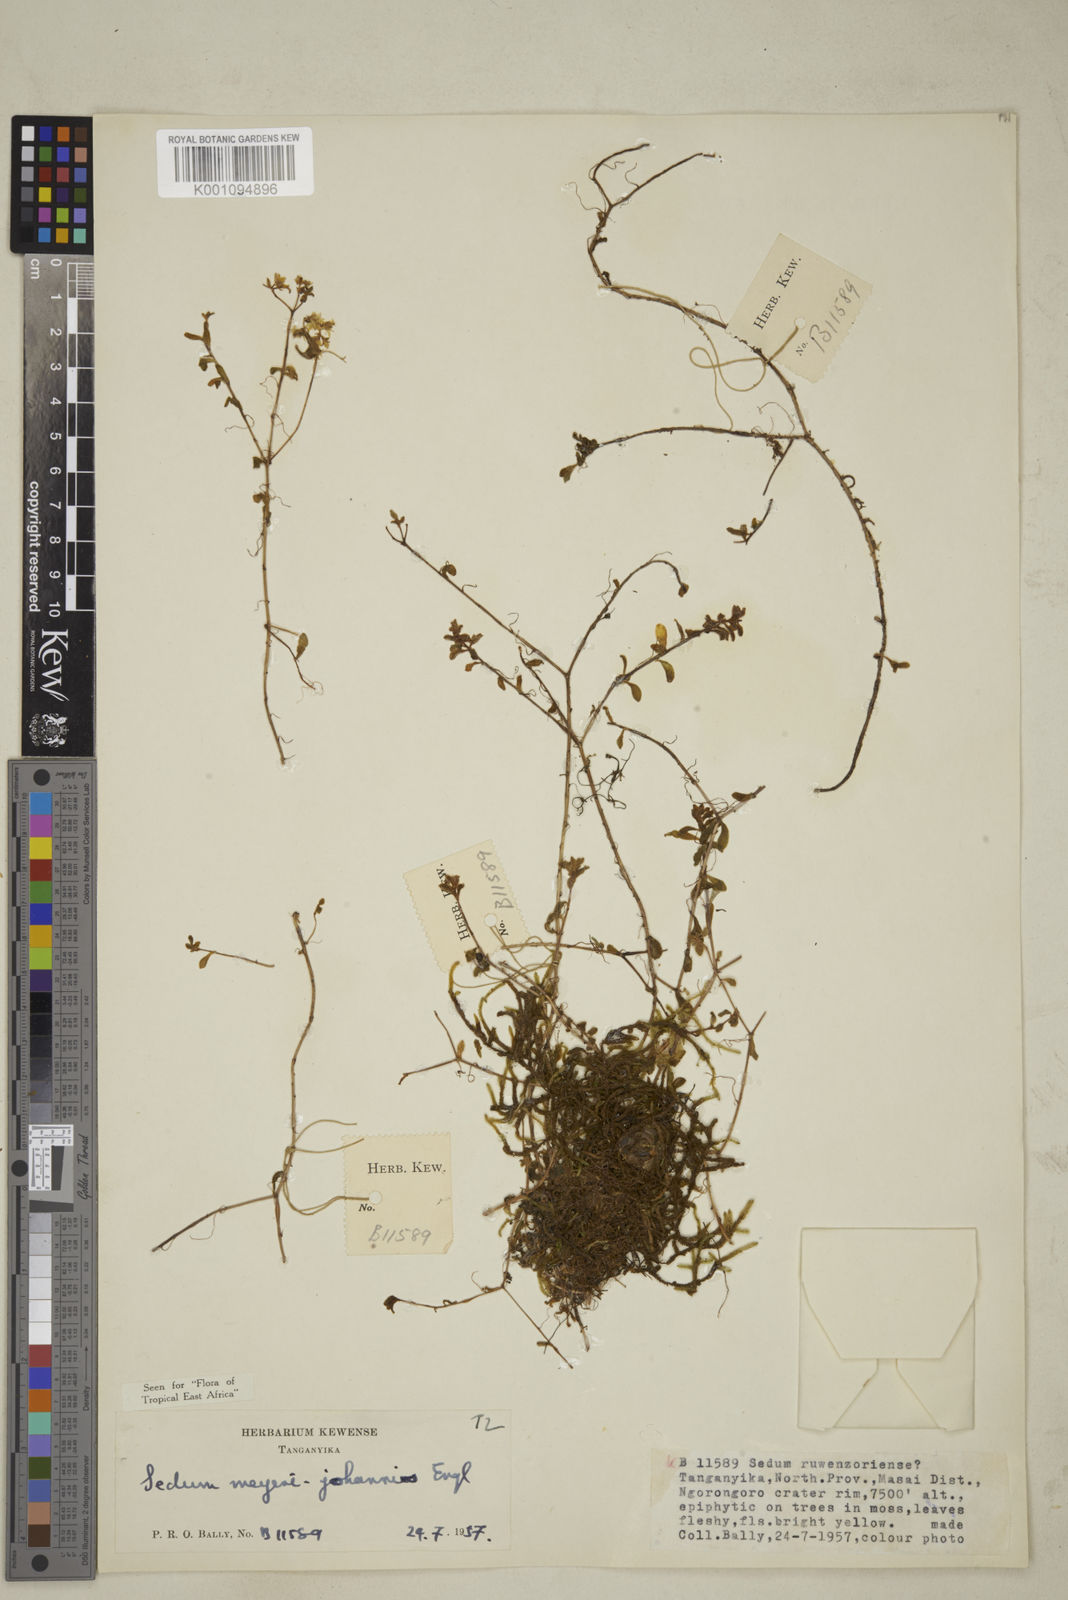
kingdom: Plantae
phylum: Tracheophyta
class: Magnoliopsida
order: Saxifragales
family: Crassulaceae
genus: Sedum
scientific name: Sedum meyeri-johannis
